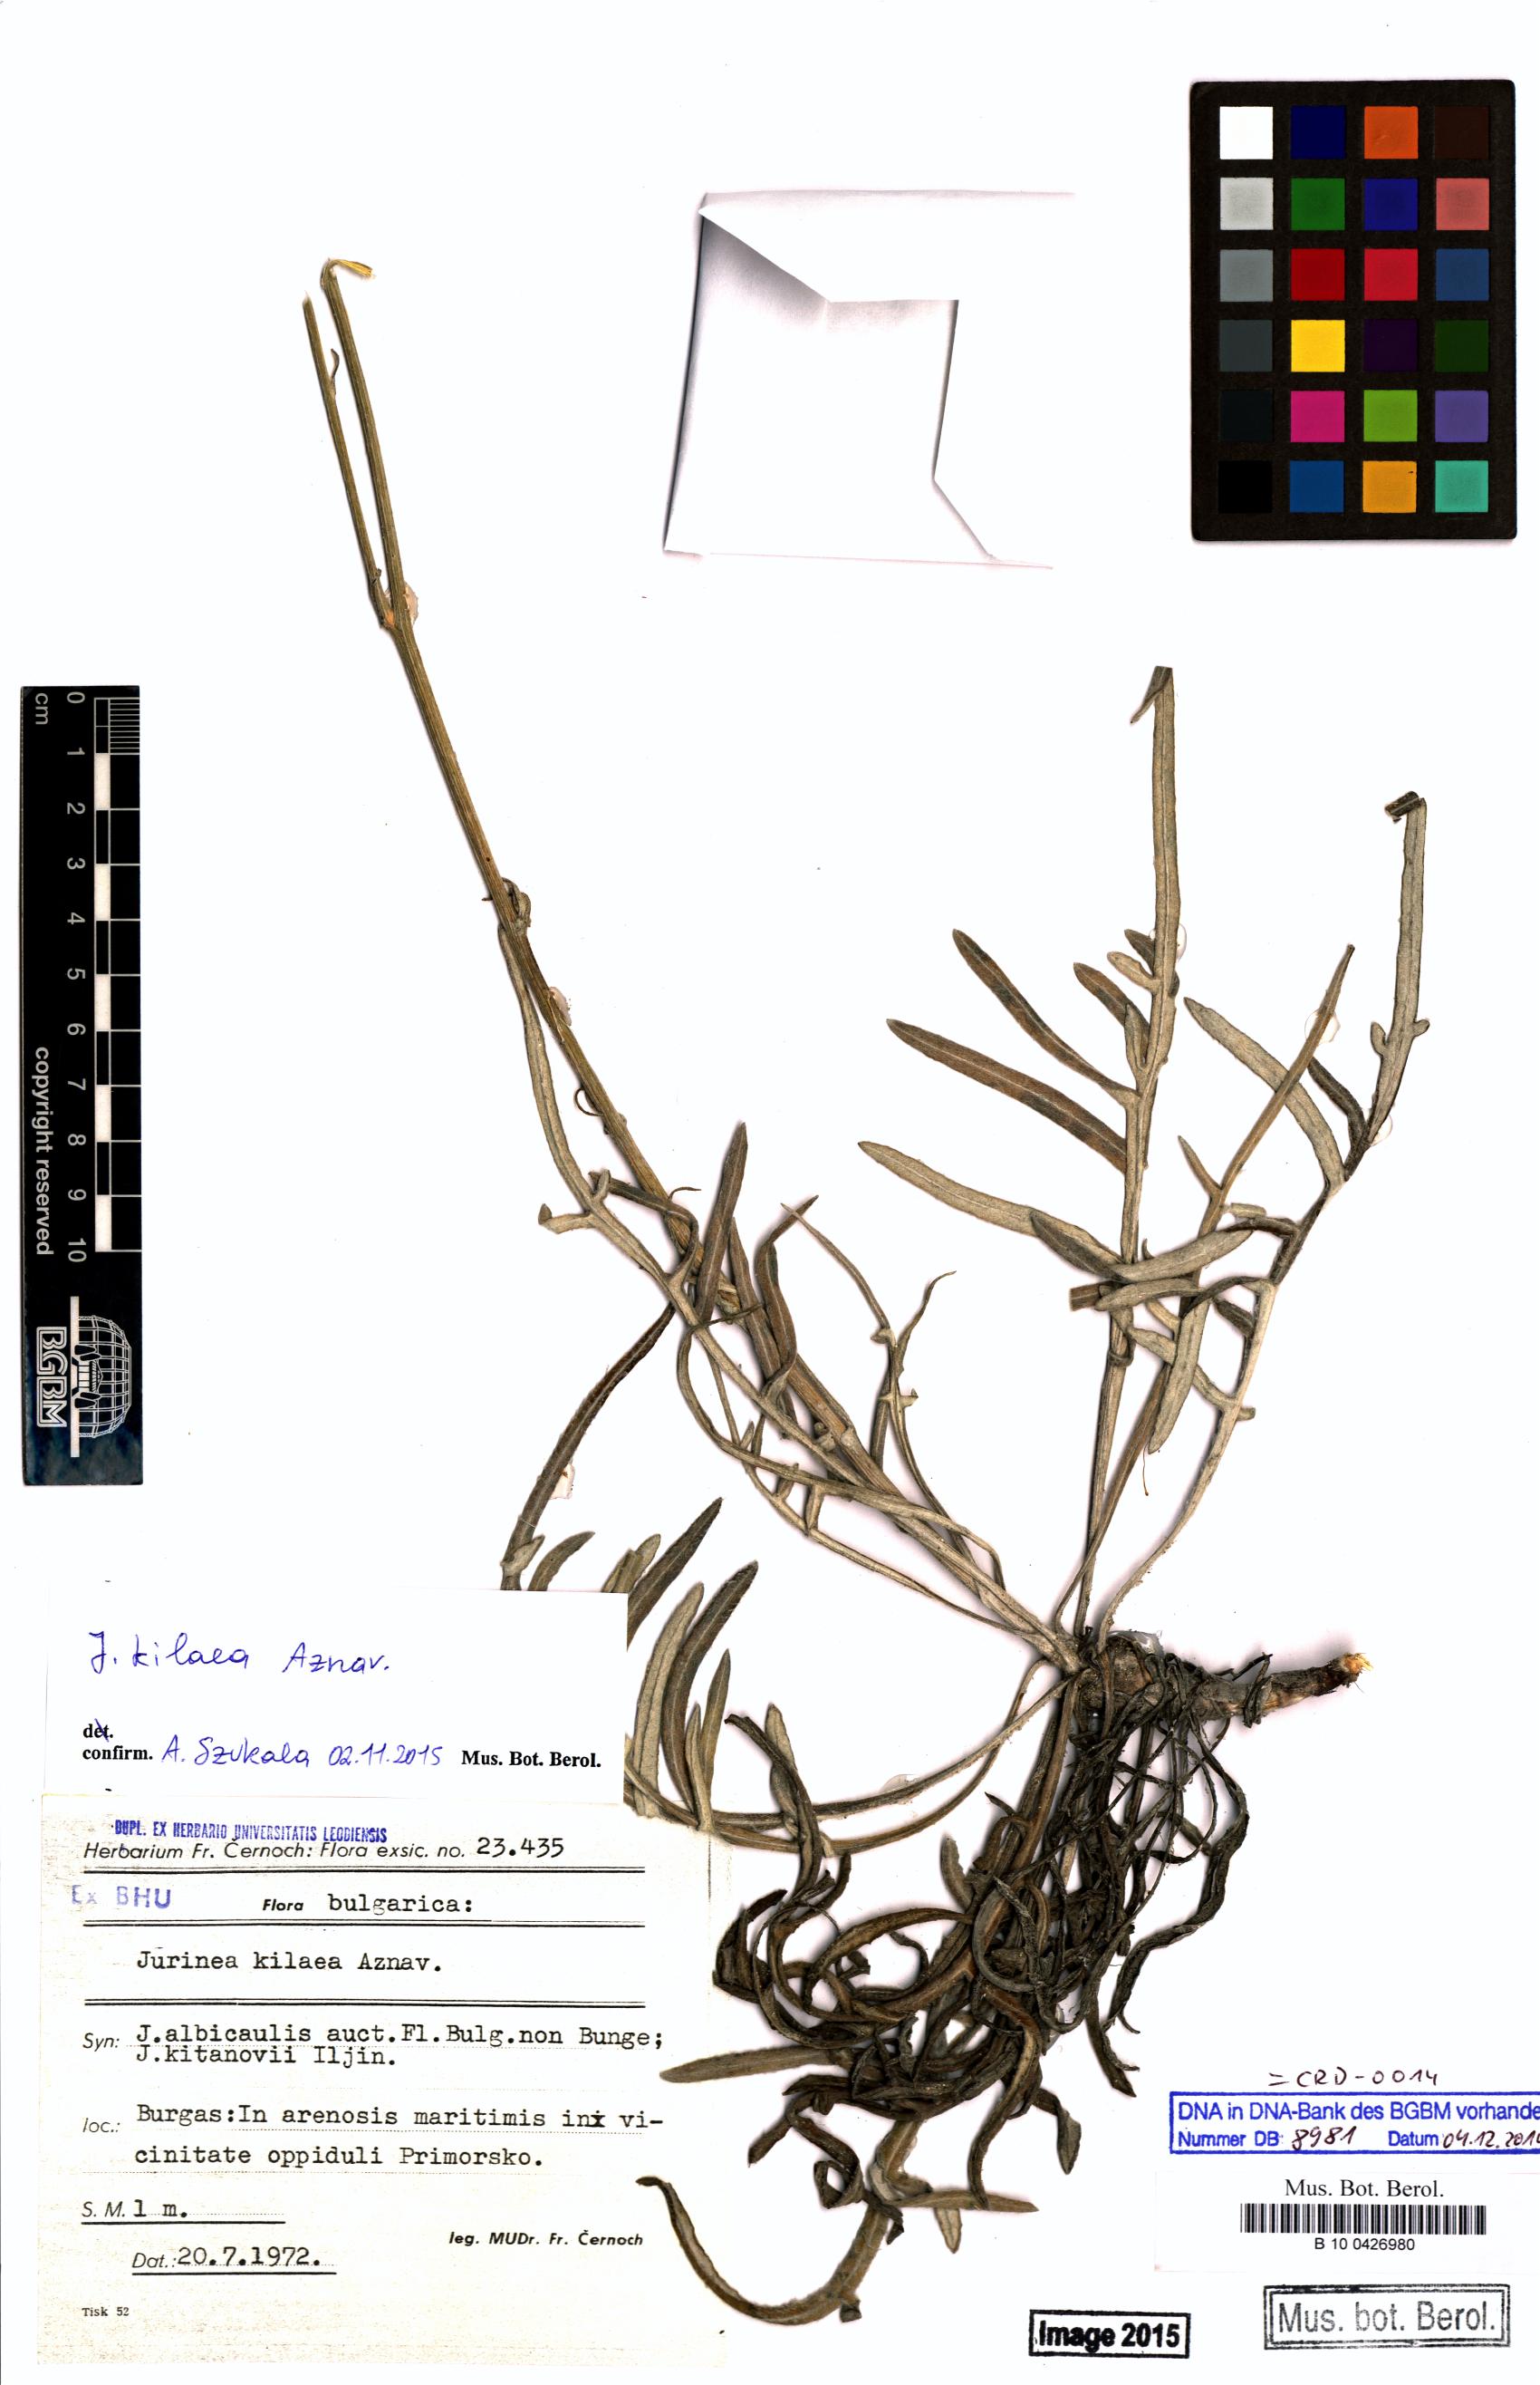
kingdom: Plantae
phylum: Tracheophyta
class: Magnoliopsida
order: Asterales
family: Asteraceae
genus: Jurinea
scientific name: Jurinea kilaea
